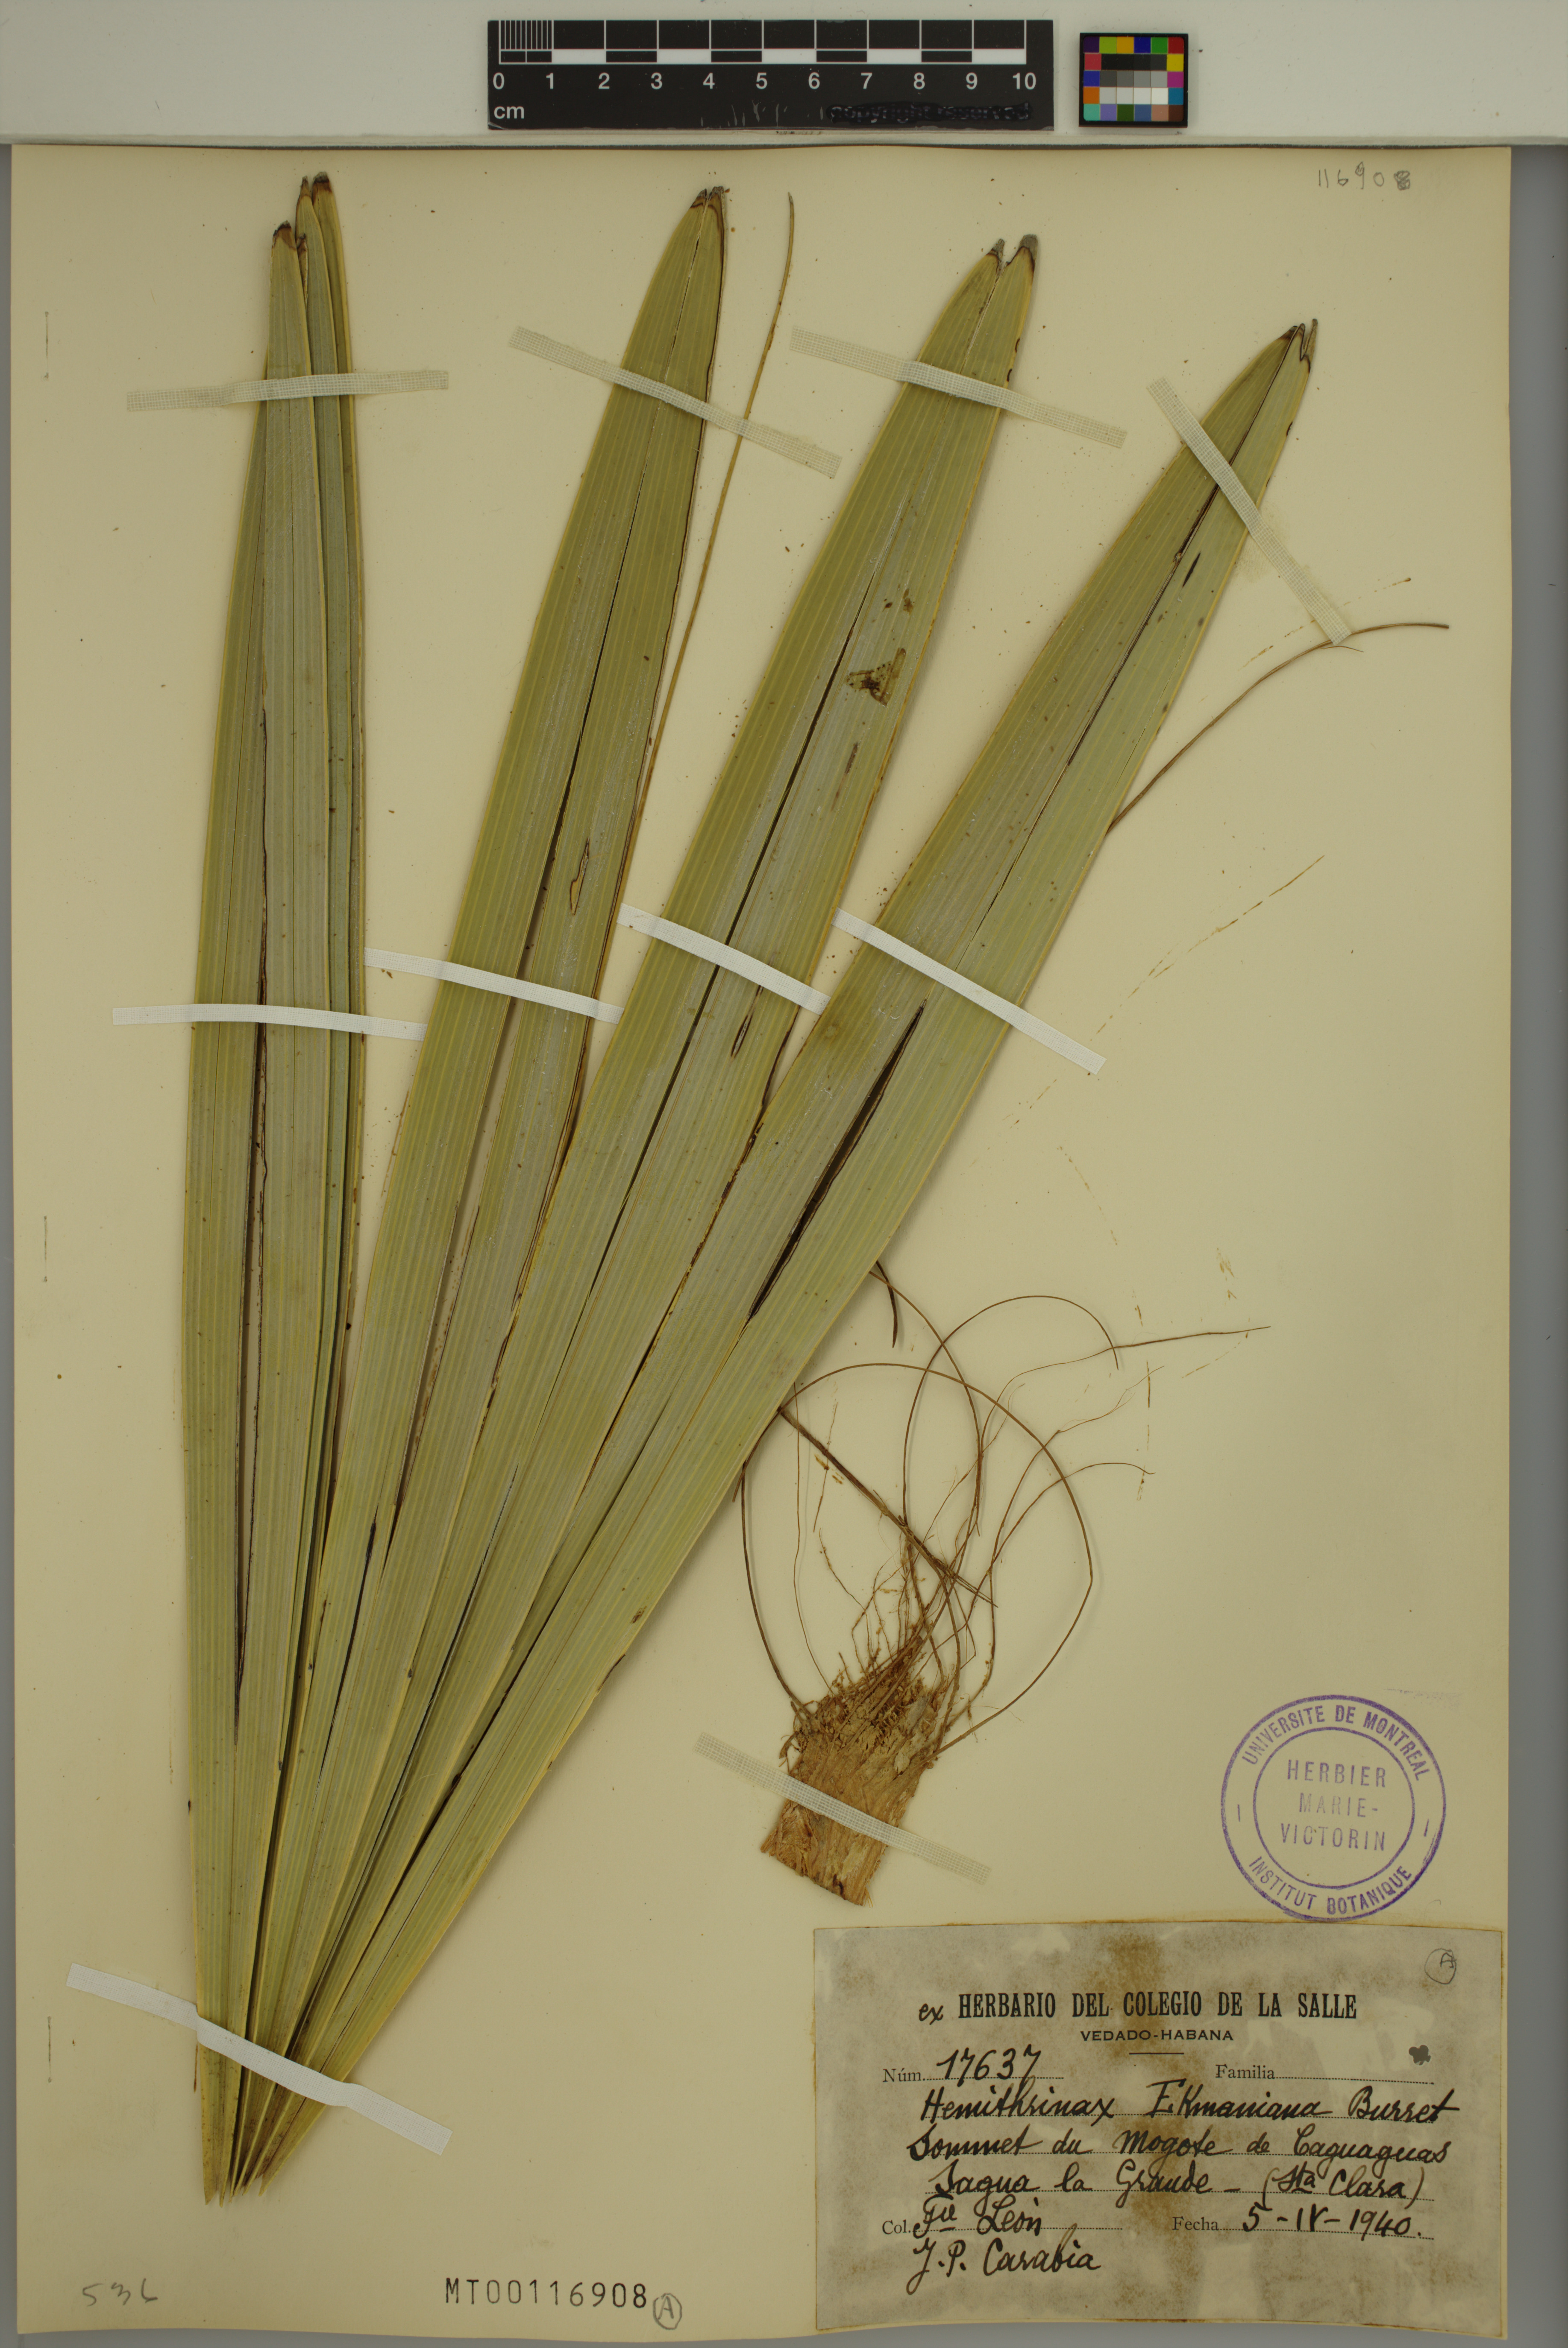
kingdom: Plantae
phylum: Tracheophyta
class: Liliopsida
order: Arecales
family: Arecaceae
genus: Hemithrinax
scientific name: Hemithrinax ekmaniana
